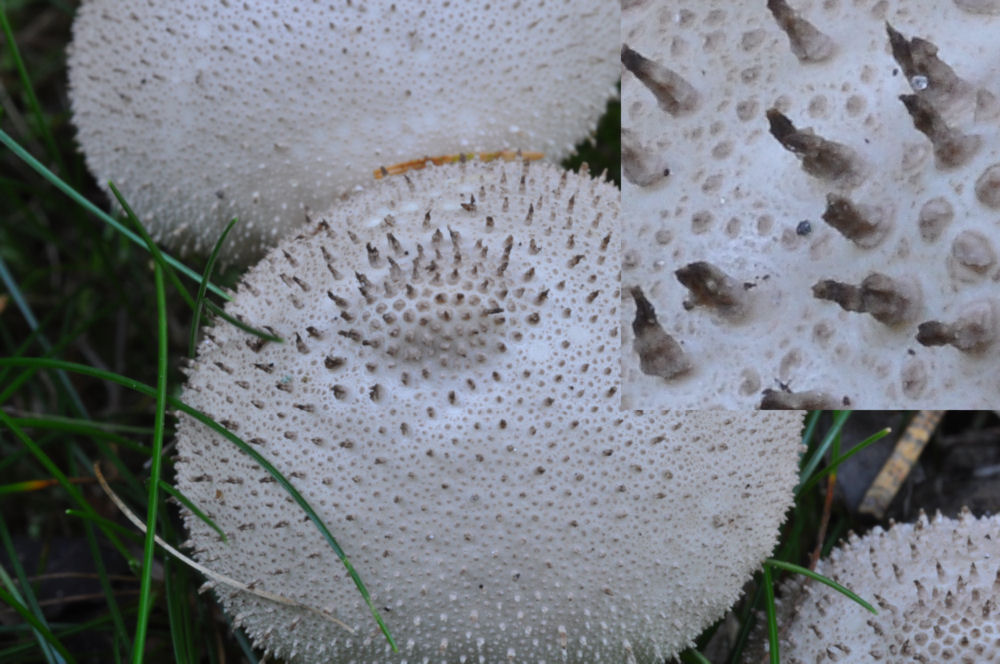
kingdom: Fungi
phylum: Basidiomycota
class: Agaricomycetes
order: Agaricales
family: Lycoperdaceae
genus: Lycoperdon
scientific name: Lycoperdon perlatum
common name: krystal-støvbold
